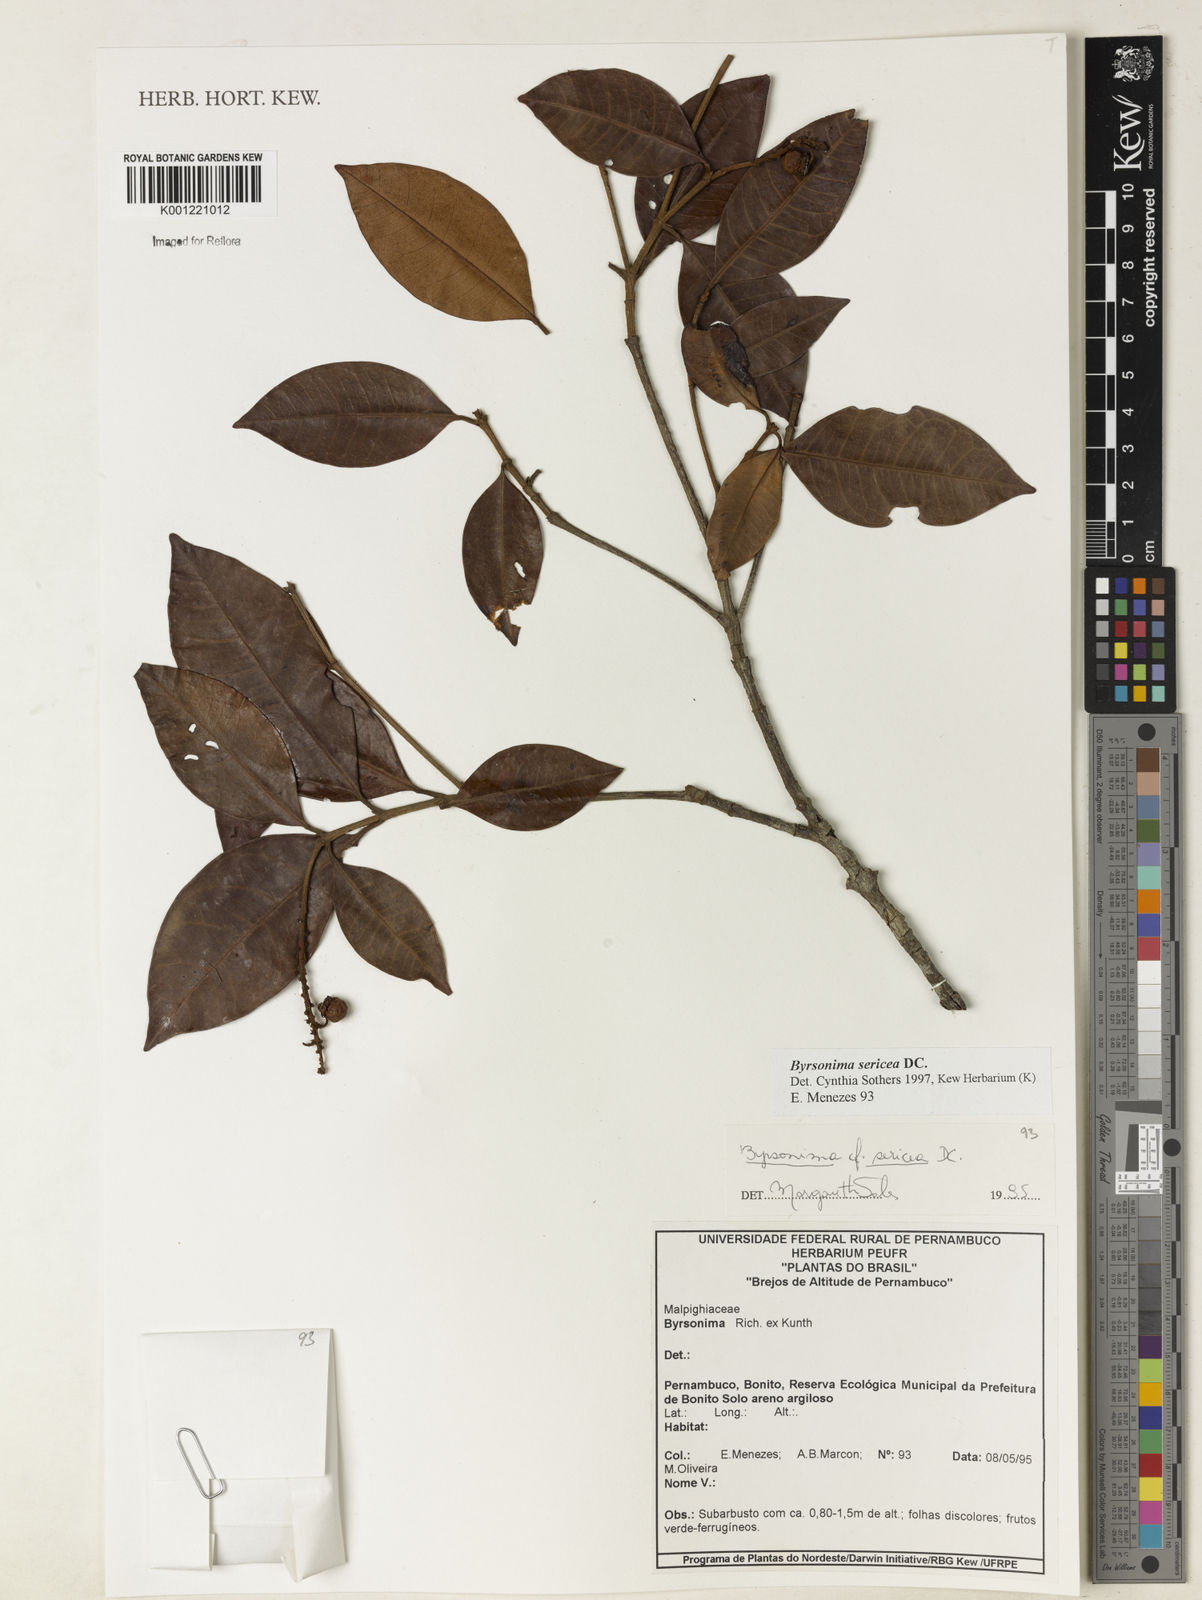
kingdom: Plantae
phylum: Tracheophyta
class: Magnoliopsida
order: Malpighiales
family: Malpighiaceae
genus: Byrsonima
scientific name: Byrsonima sericea
